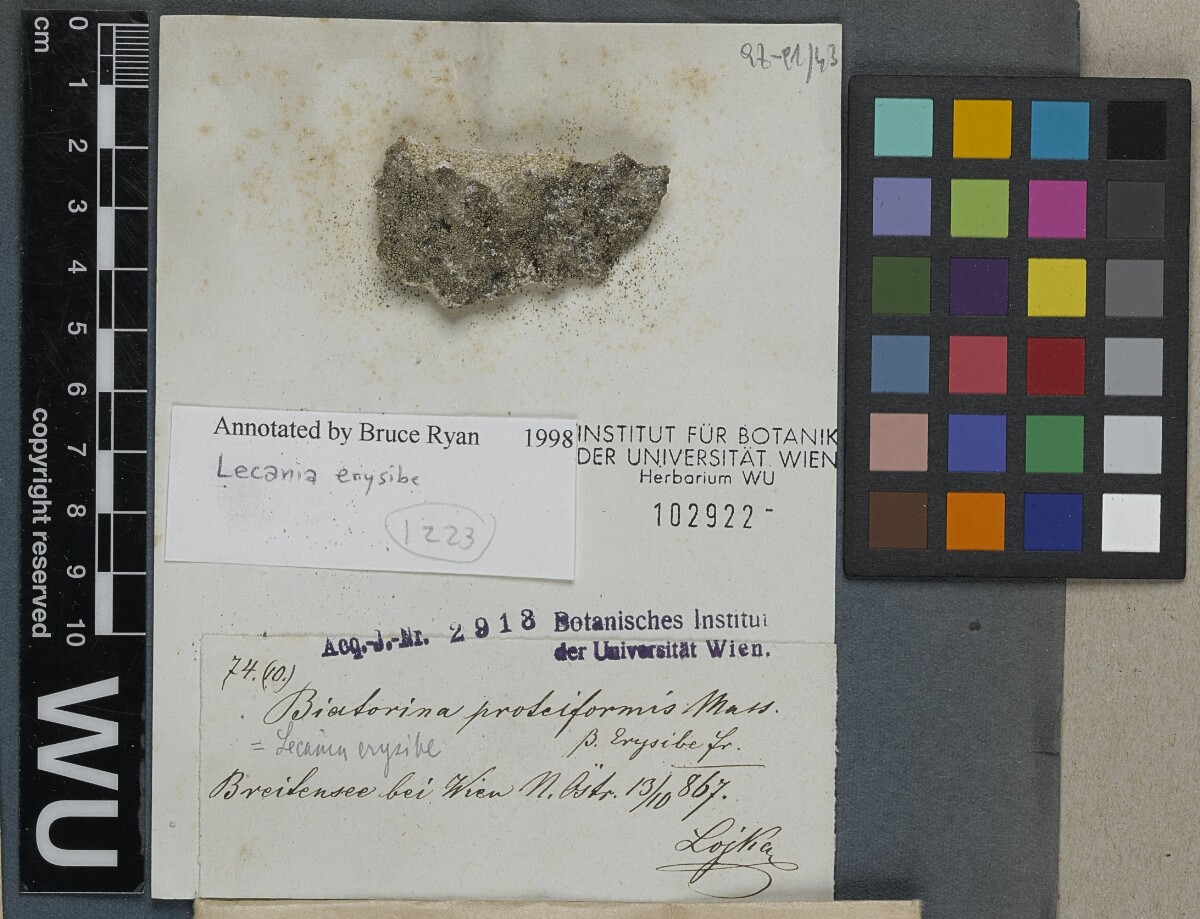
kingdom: Fungi
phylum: Ascomycota
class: Lecanoromycetes
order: Lecanorales
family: Ramalinaceae
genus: Lecania
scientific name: Lecania erysibe
